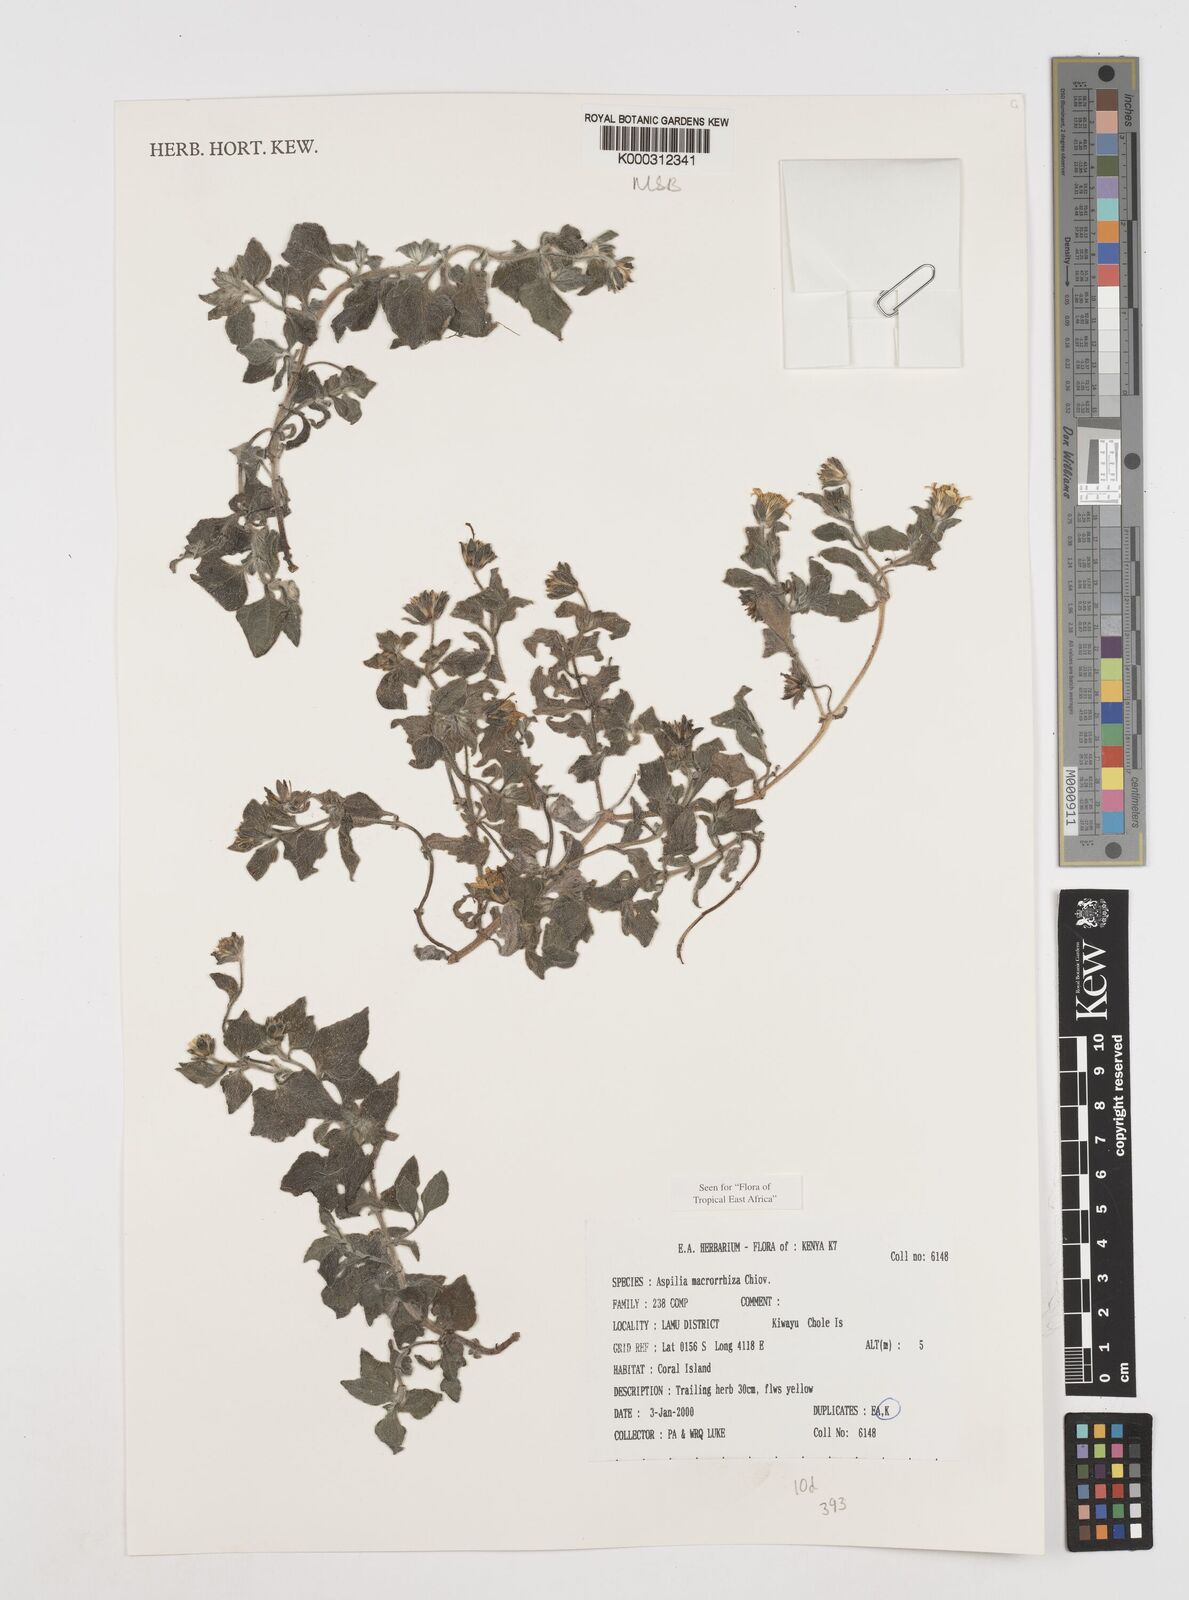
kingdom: Plantae
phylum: Tracheophyta
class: Magnoliopsida
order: Asterales
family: Asteraceae
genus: Aspilia
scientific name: Aspilia macrorrhiza
